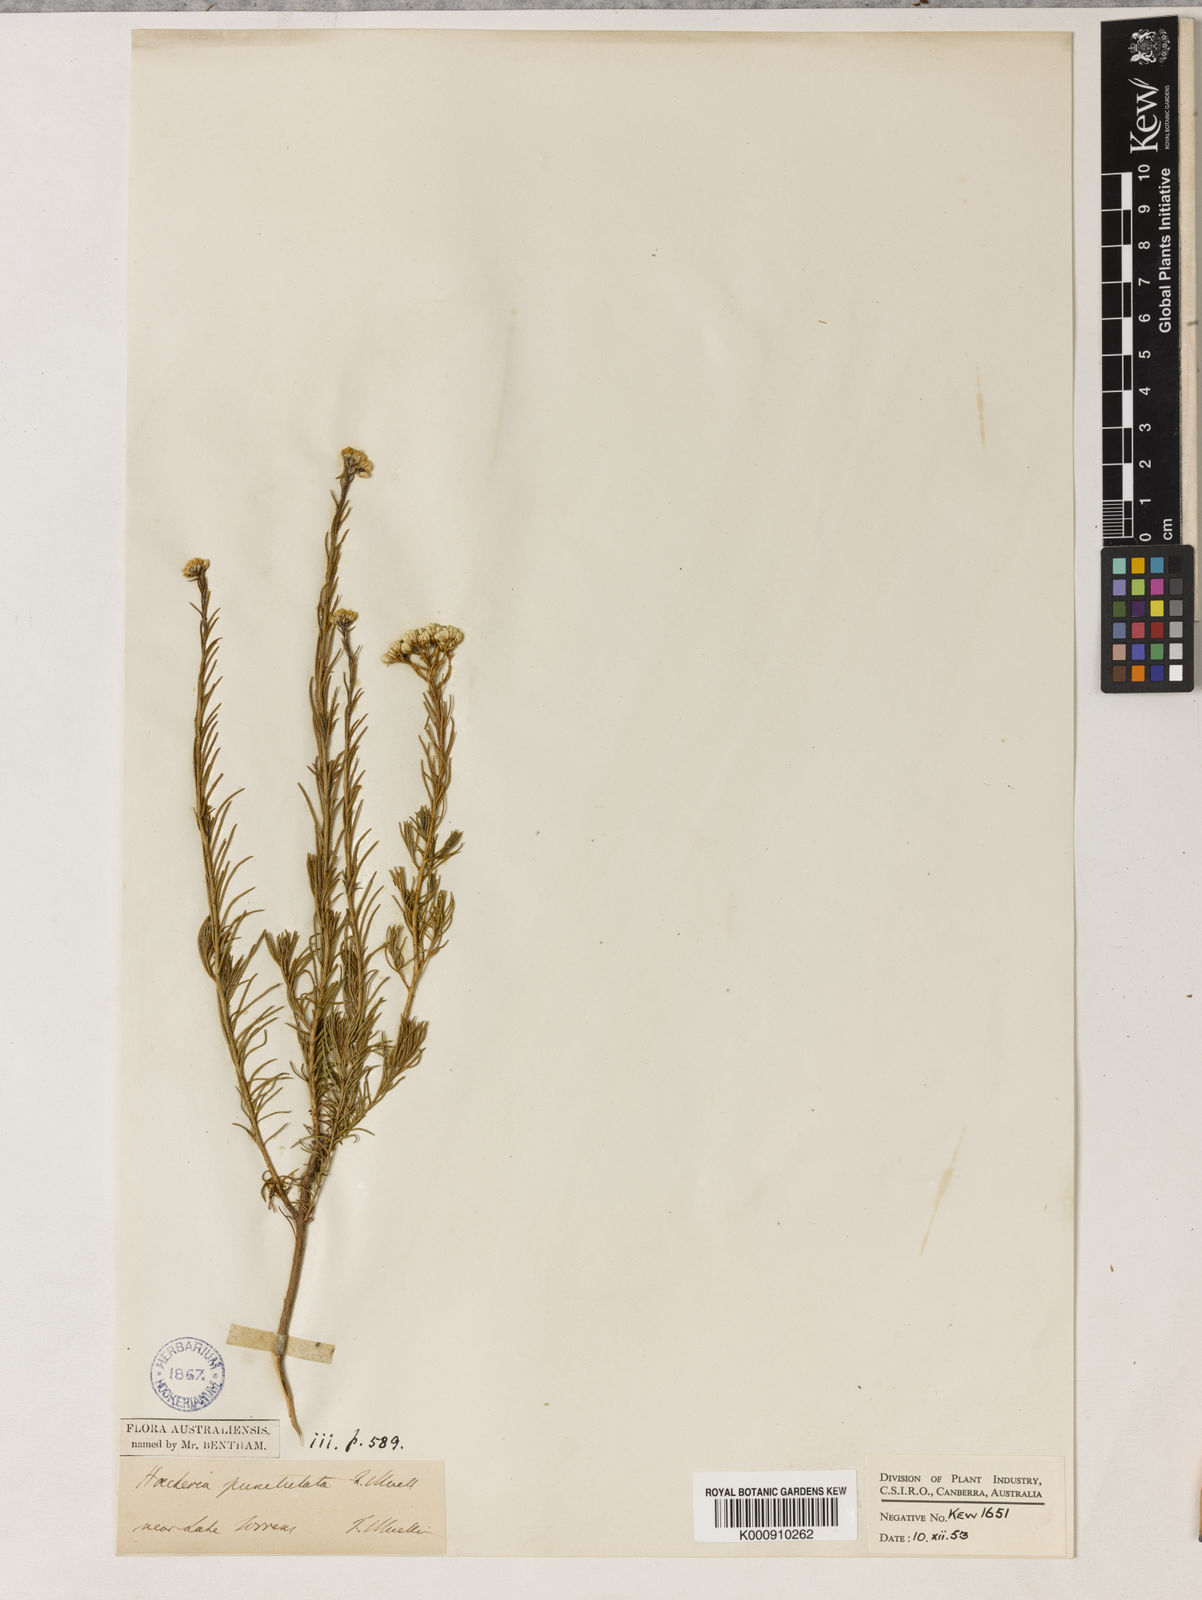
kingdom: Plantae
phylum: Tracheophyta
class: Magnoliopsida
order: Asterales
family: Asteraceae
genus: Haeckeria
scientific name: Haeckeria punctulata
